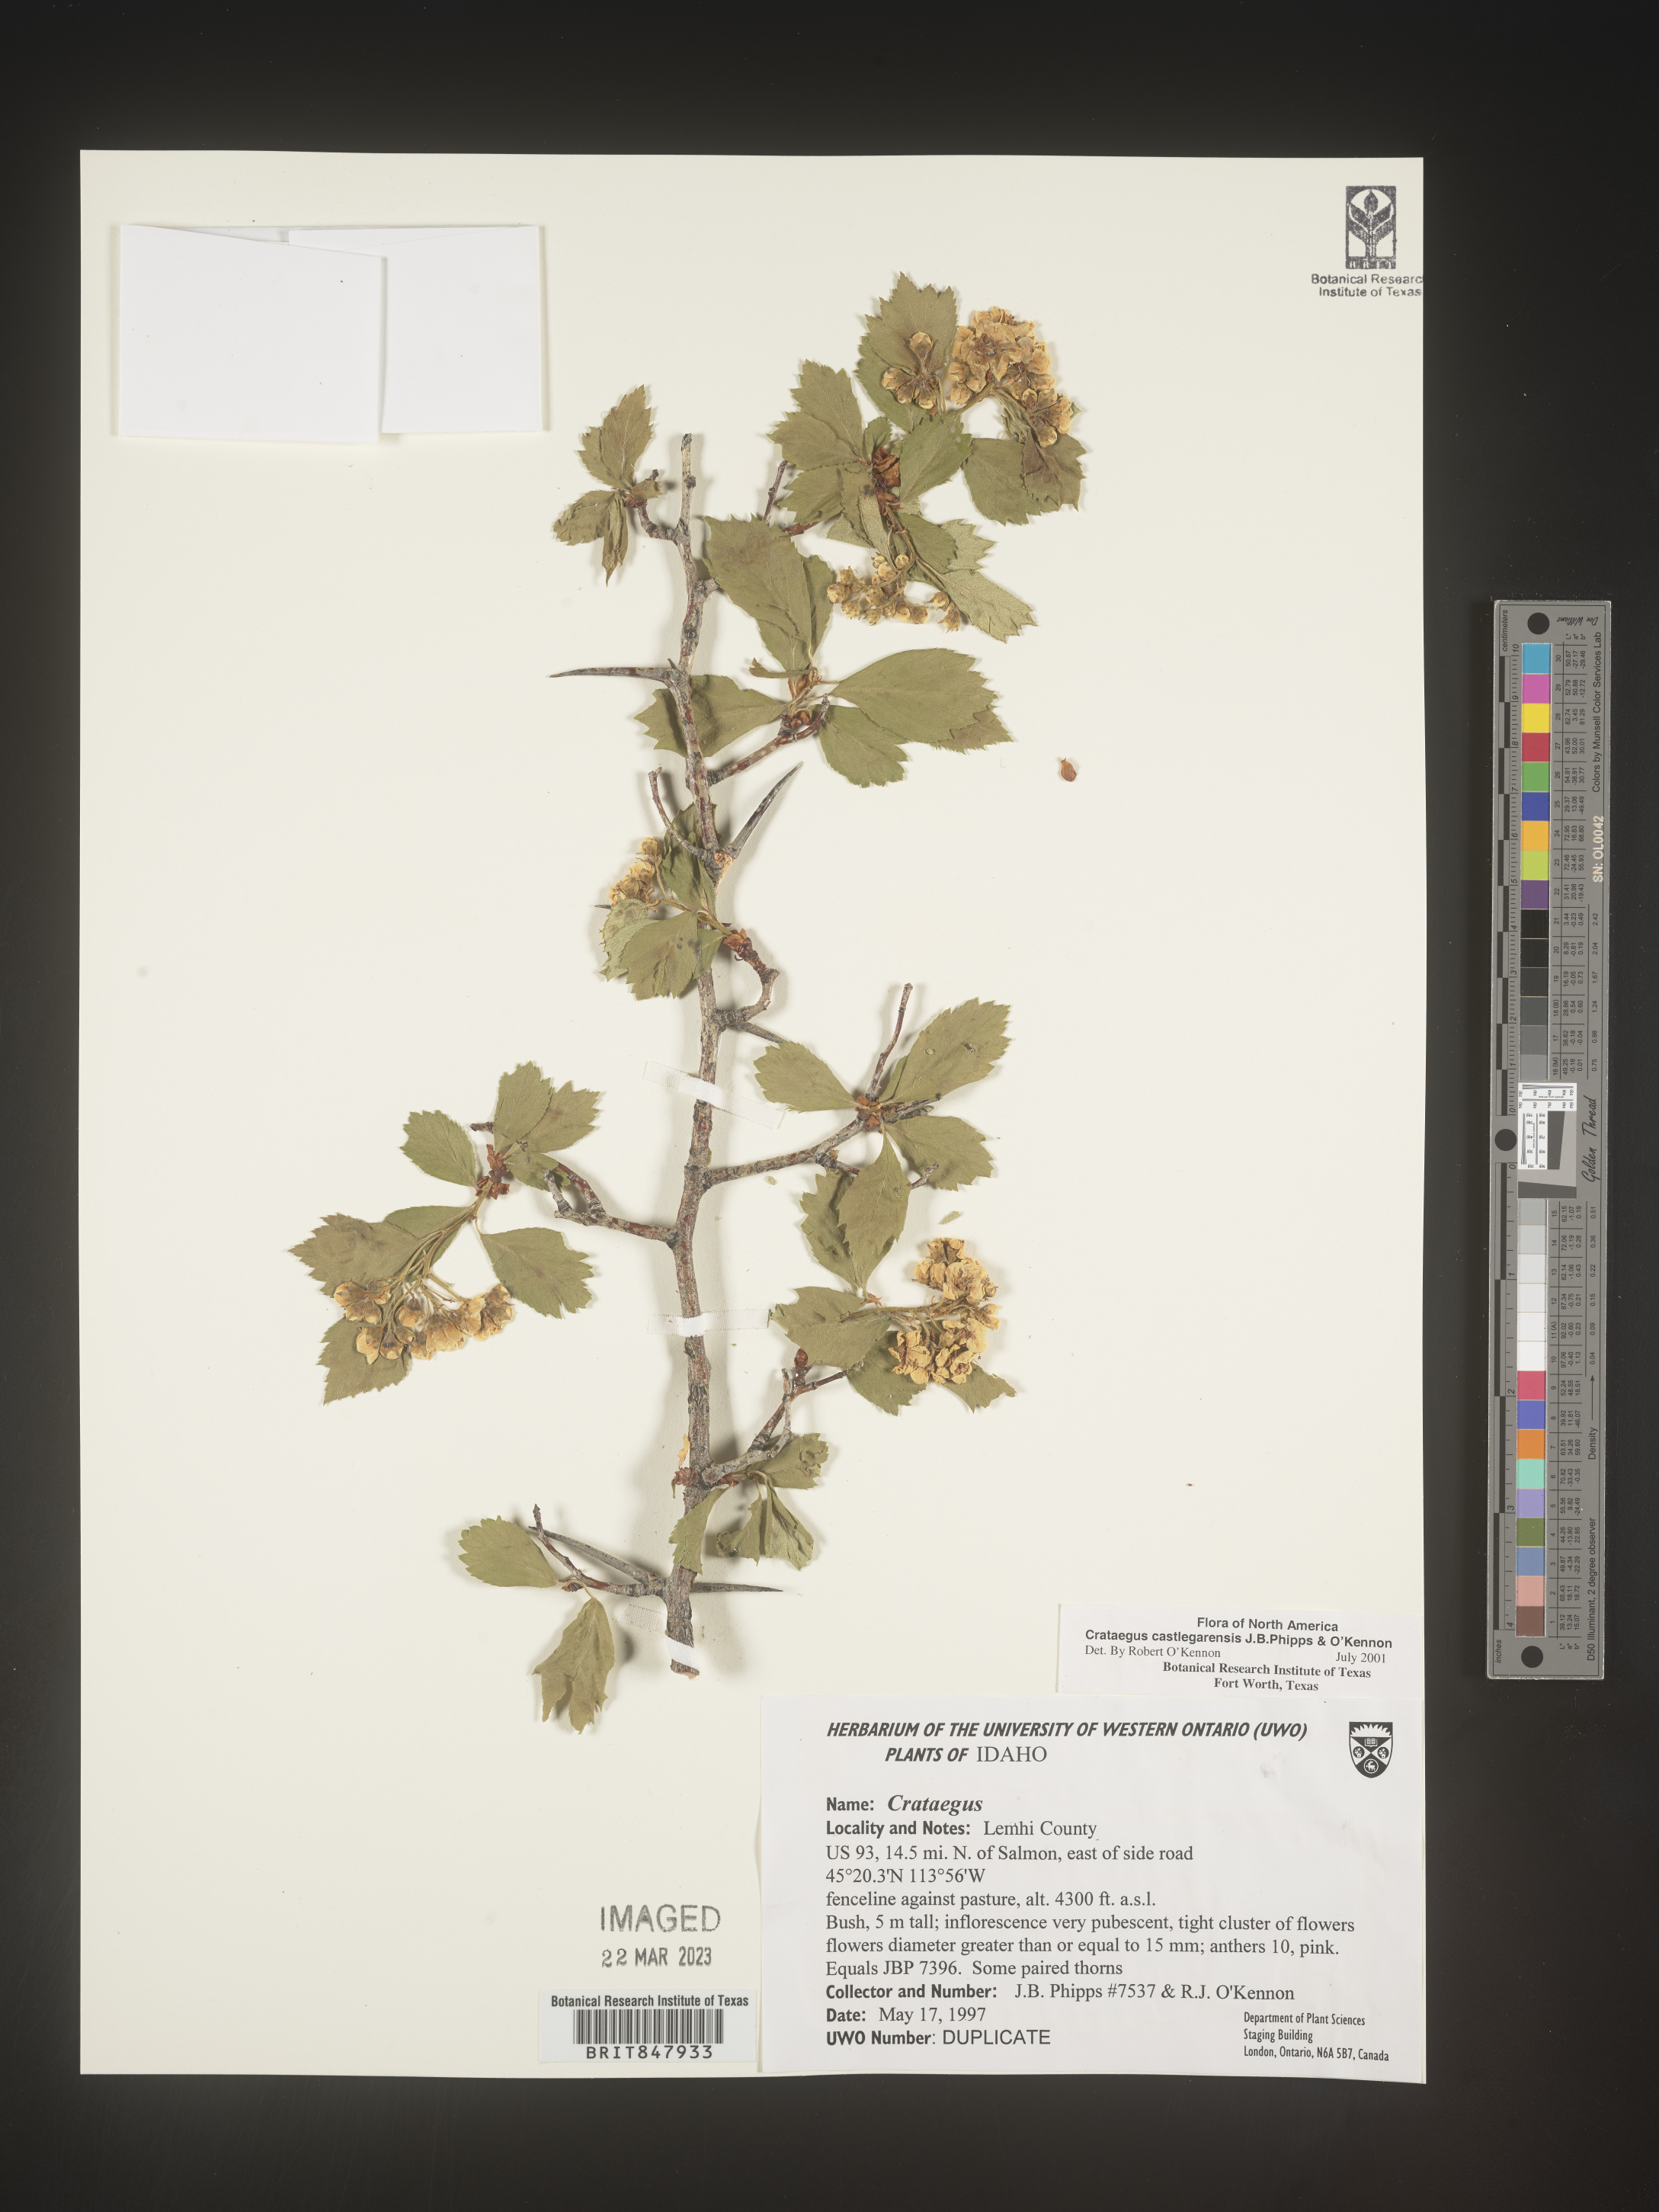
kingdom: Plantae
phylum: Tracheophyta
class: Magnoliopsida
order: Rosales
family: Rosaceae
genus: Crataegus
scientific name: Crataegus castlegarensis
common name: Castlegar hawthorn
